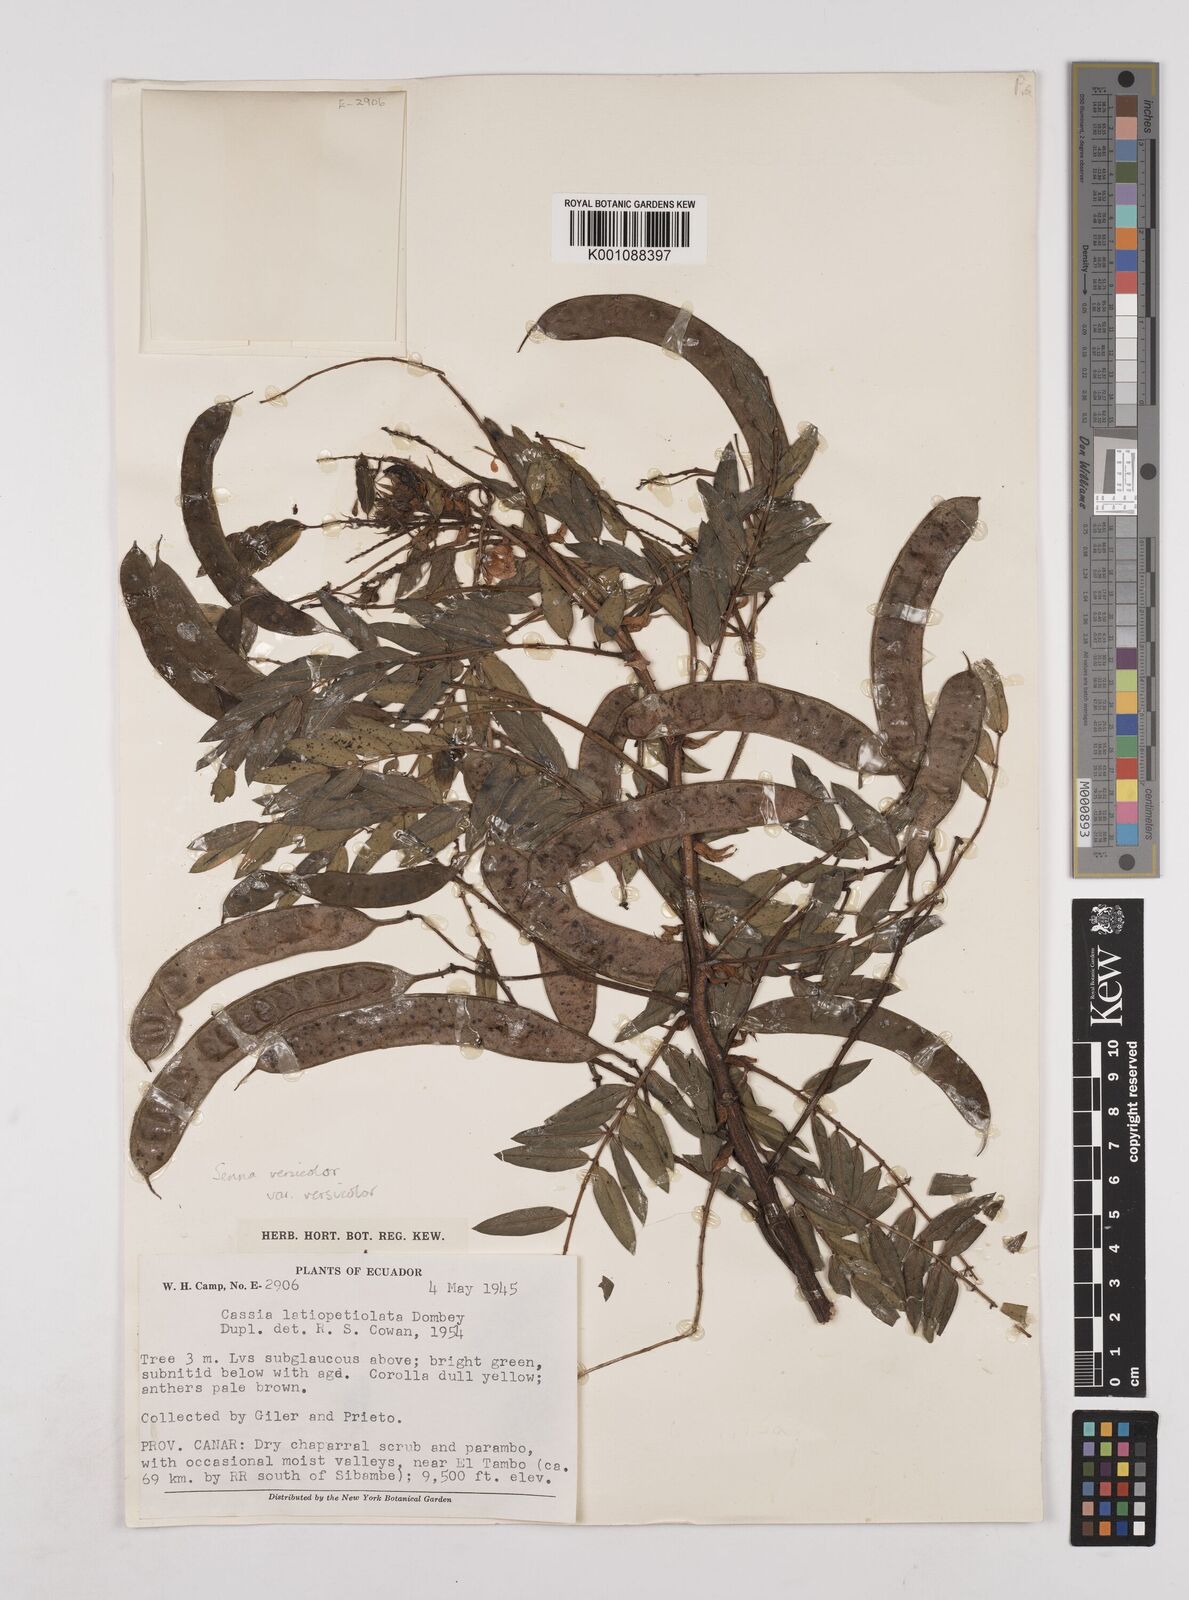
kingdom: Plantae
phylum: Tracheophyta
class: Magnoliopsida
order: Fabales
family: Fabaceae
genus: Senna
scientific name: Senna versicolor
